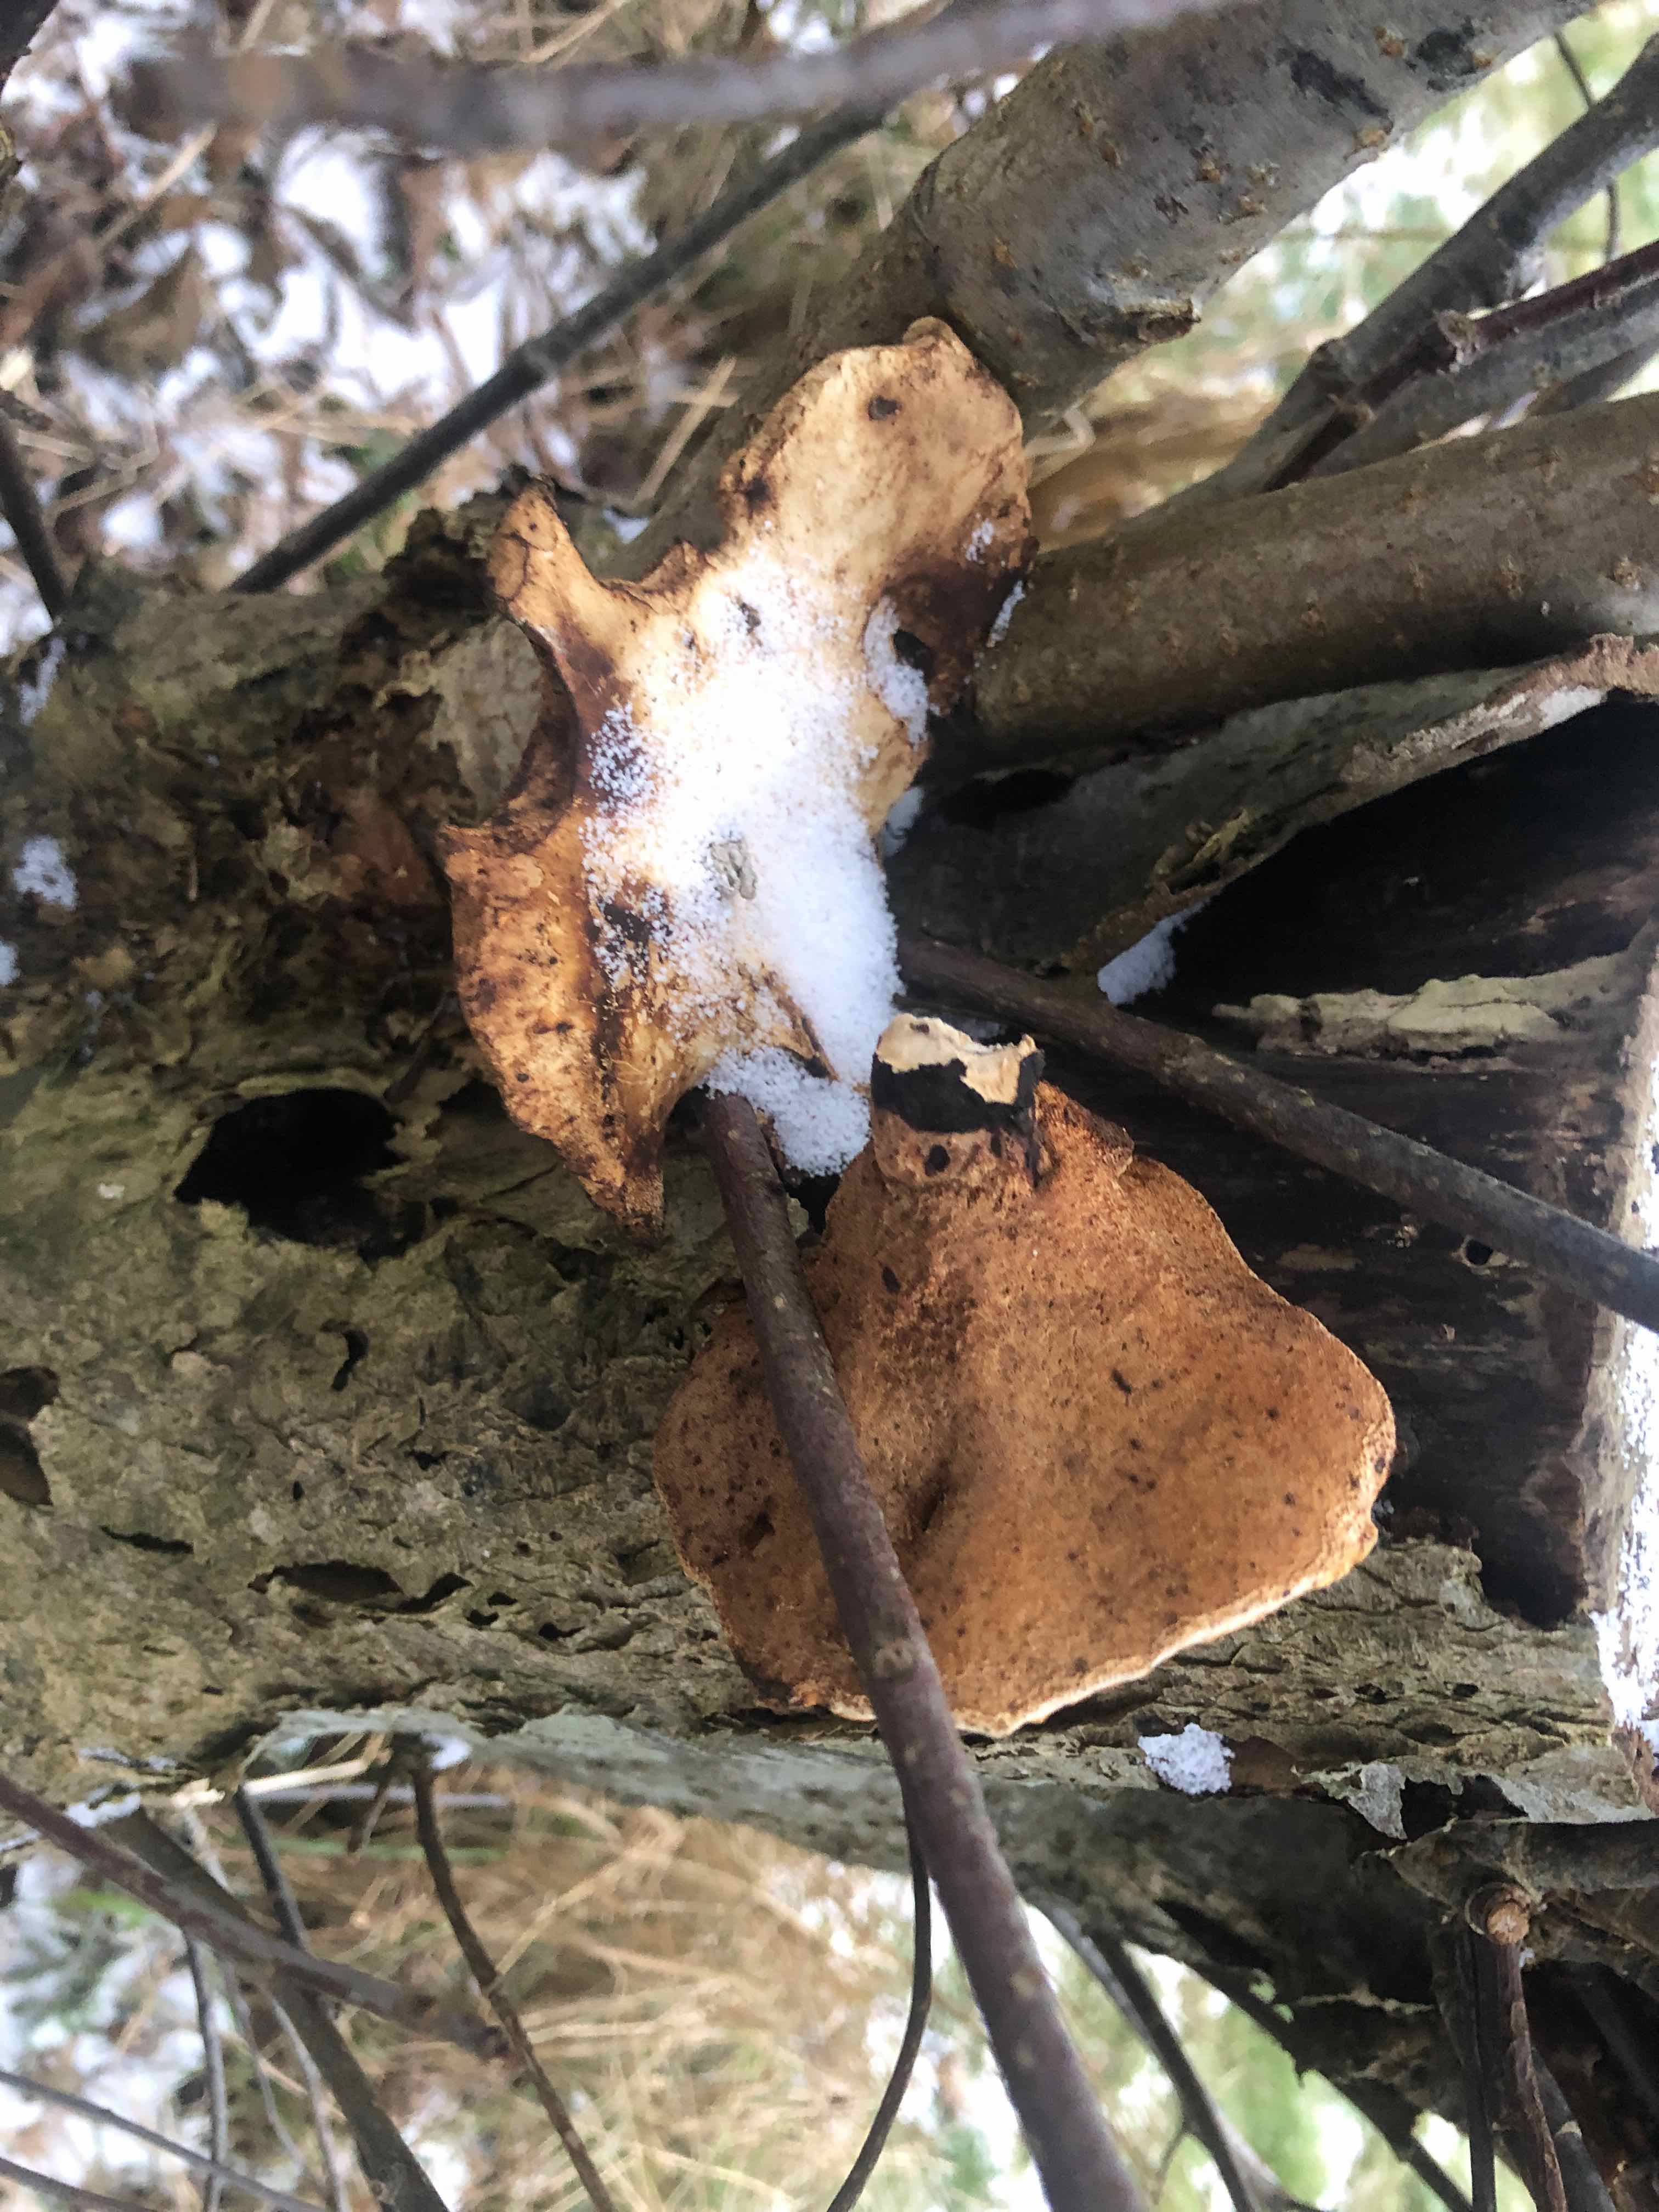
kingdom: Fungi
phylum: Basidiomycota
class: Agaricomycetes
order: Polyporales
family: Polyporaceae
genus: Cerioporus
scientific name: Cerioporus varius
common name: foranderlig stilkporesvamp
